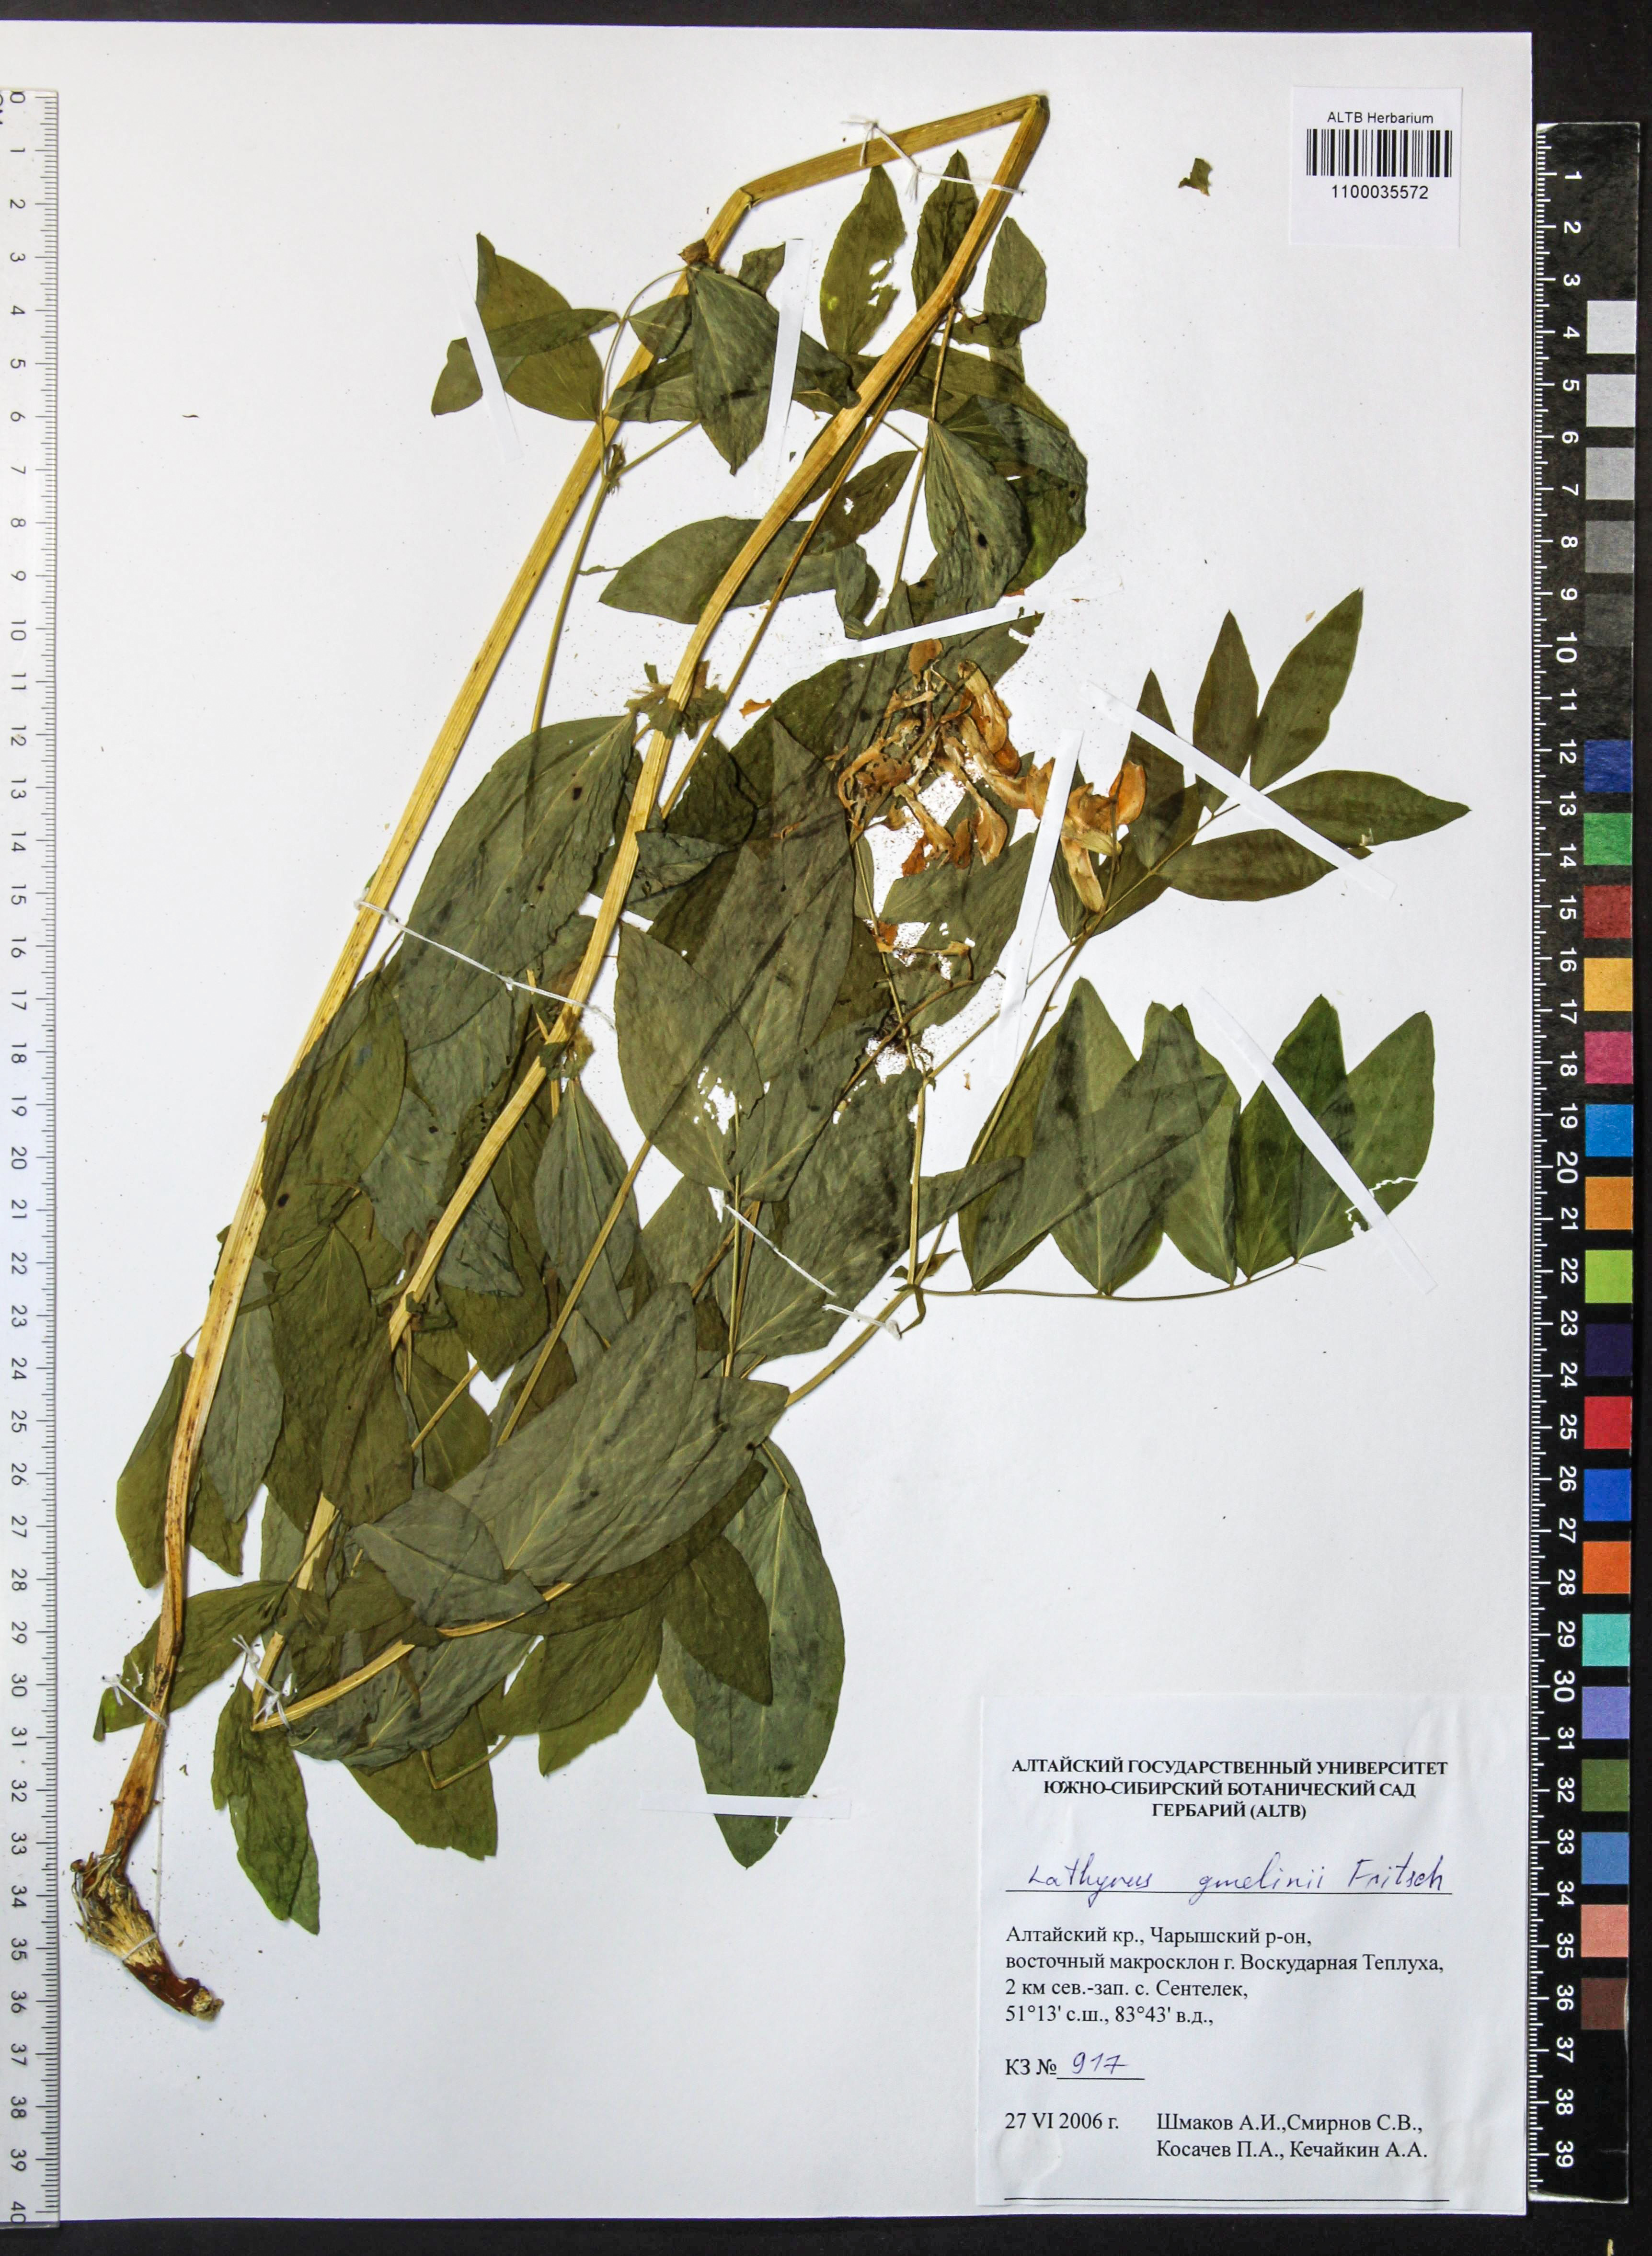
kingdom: Plantae
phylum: Tracheophyta
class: Magnoliopsida
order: Fabales
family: Fabaceae
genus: Lathyrus
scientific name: Lathyrus gmelinii
